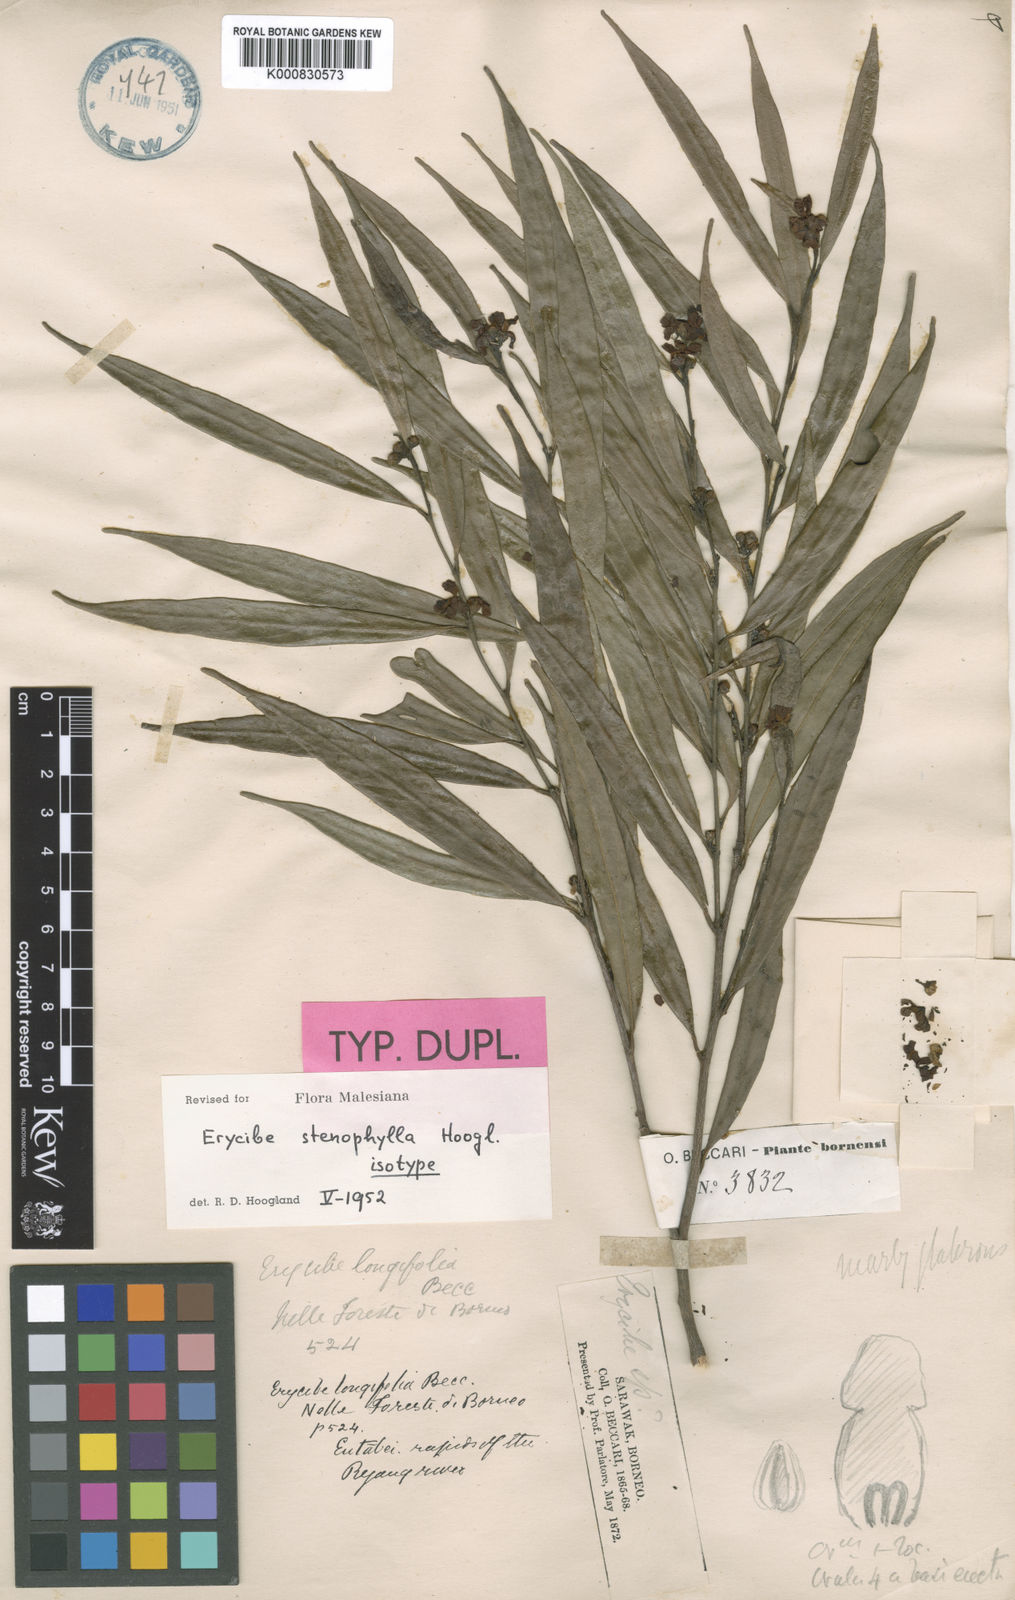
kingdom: Plantae
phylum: Tracheophyta
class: Magnoliopsida
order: Solanales
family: Convolvulaceae
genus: Erycibe
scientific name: Erycibe stenophylla
